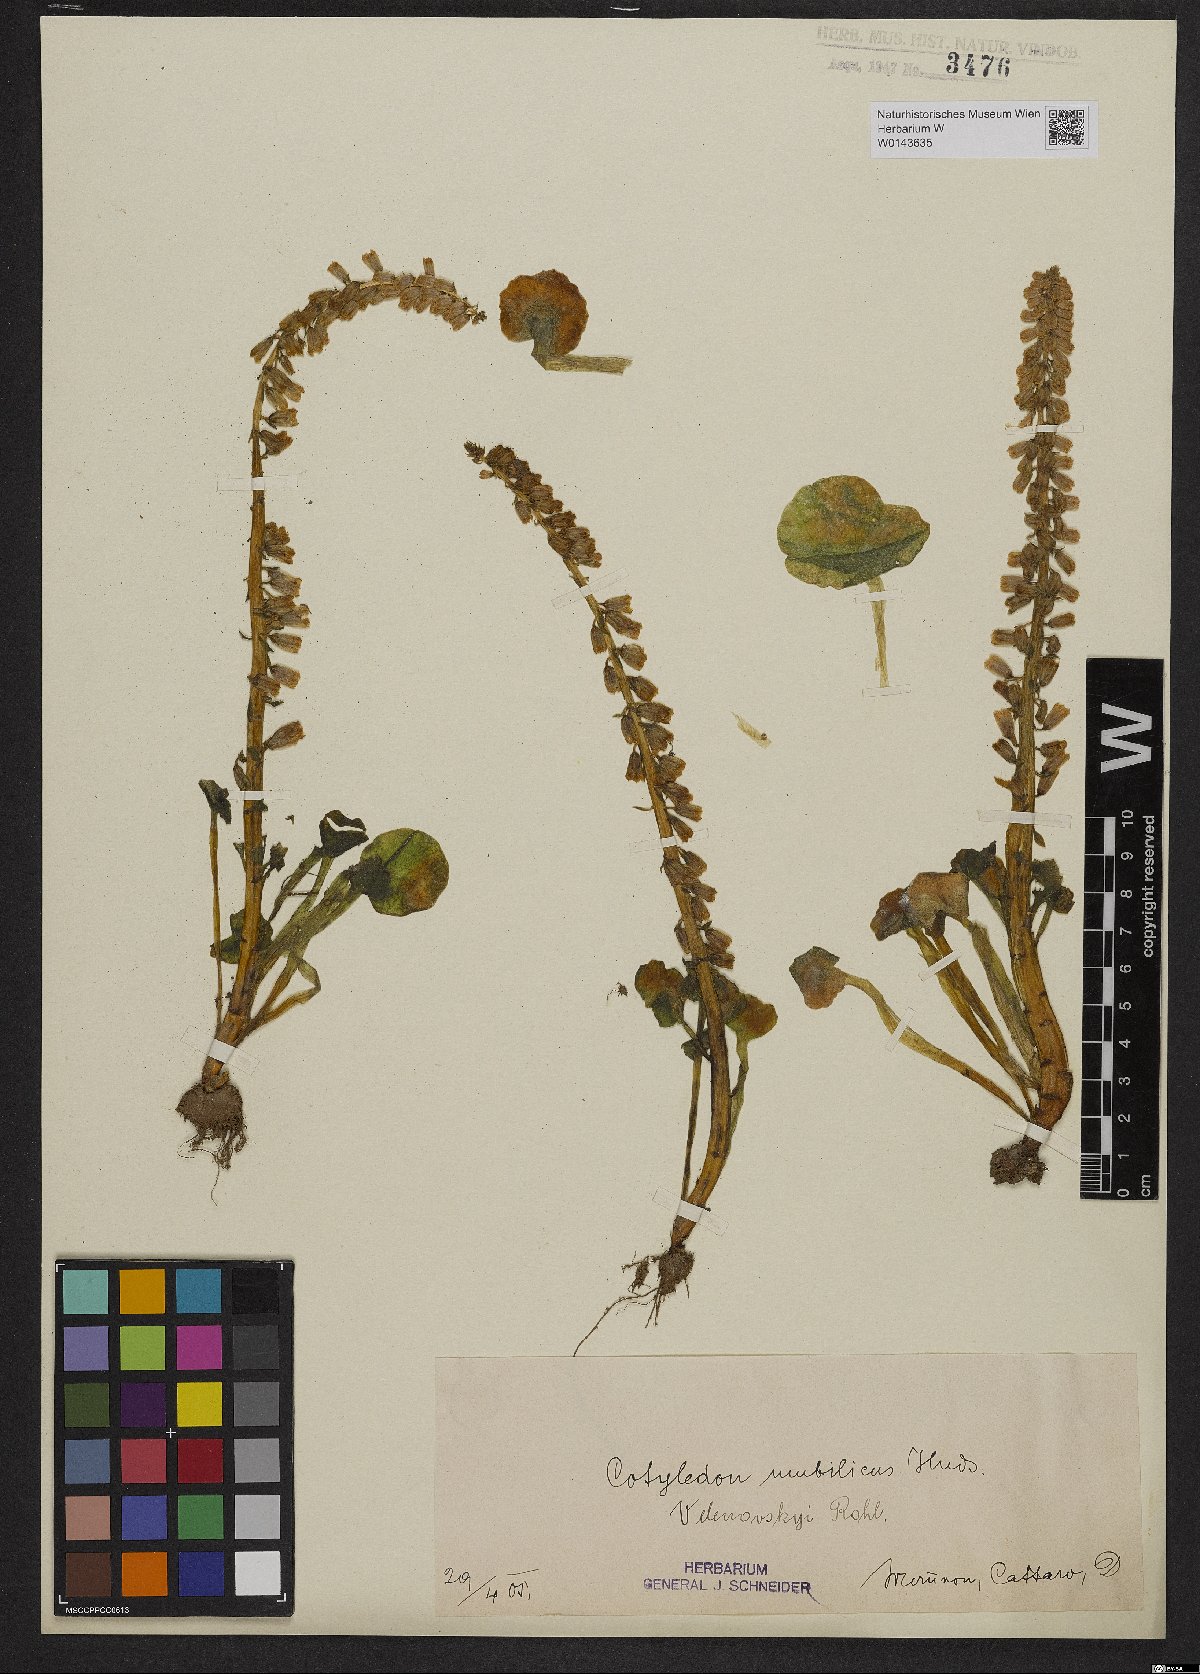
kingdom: Plantae
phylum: Tracheophyta
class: Magnoliopsida
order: Saxifragales
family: Crassulaceae
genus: Umbilicus
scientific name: Umbilicus rupestris
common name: Navelwort
